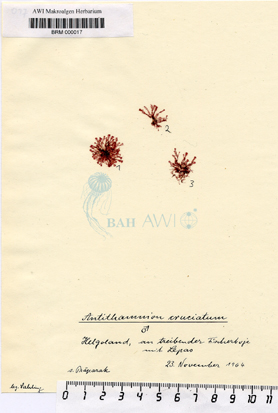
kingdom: Plantae
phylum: Rhodophyta
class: Florideophyceae
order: Ceramiales
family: Ceramiaceae
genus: Antithamnion
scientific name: Antithamnion cruciatum
